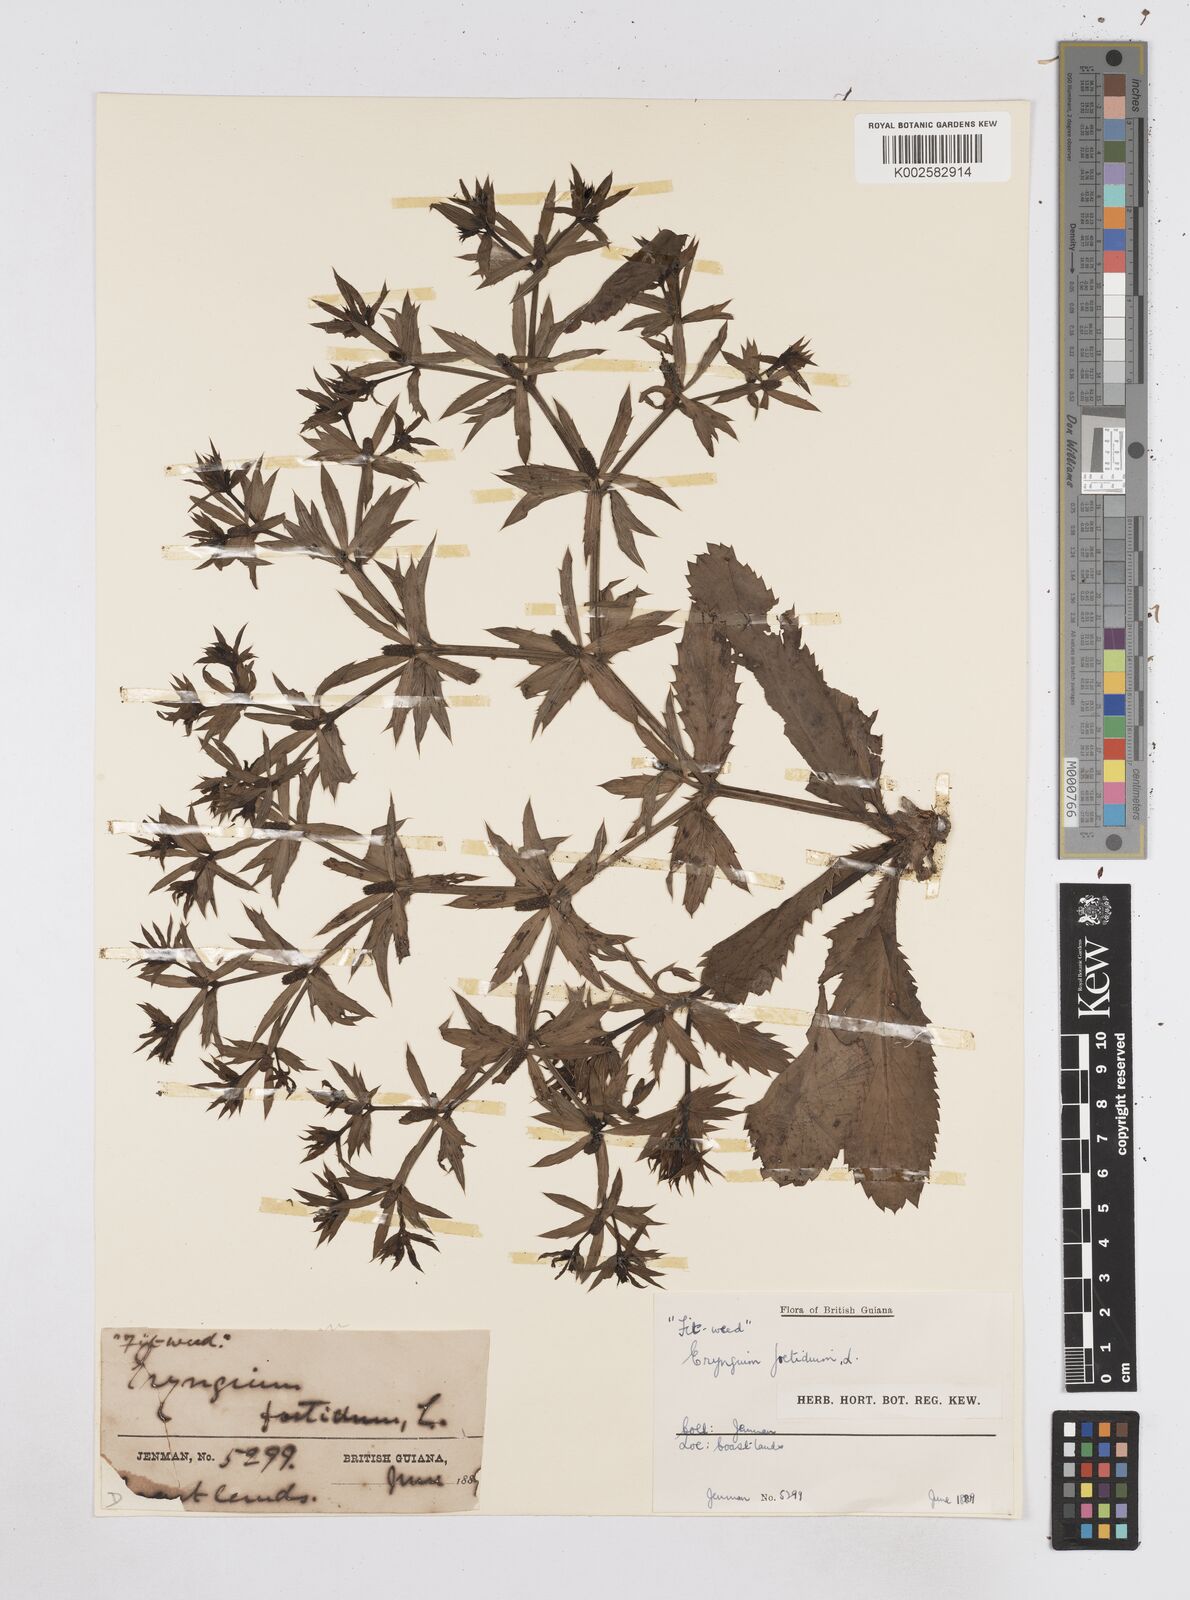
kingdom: Plantae
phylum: Tracheophyta
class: Magnoliopsida
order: Apiales
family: Apiaceae
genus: Eryngium
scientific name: Eryngium foetidum
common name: Fitweed
